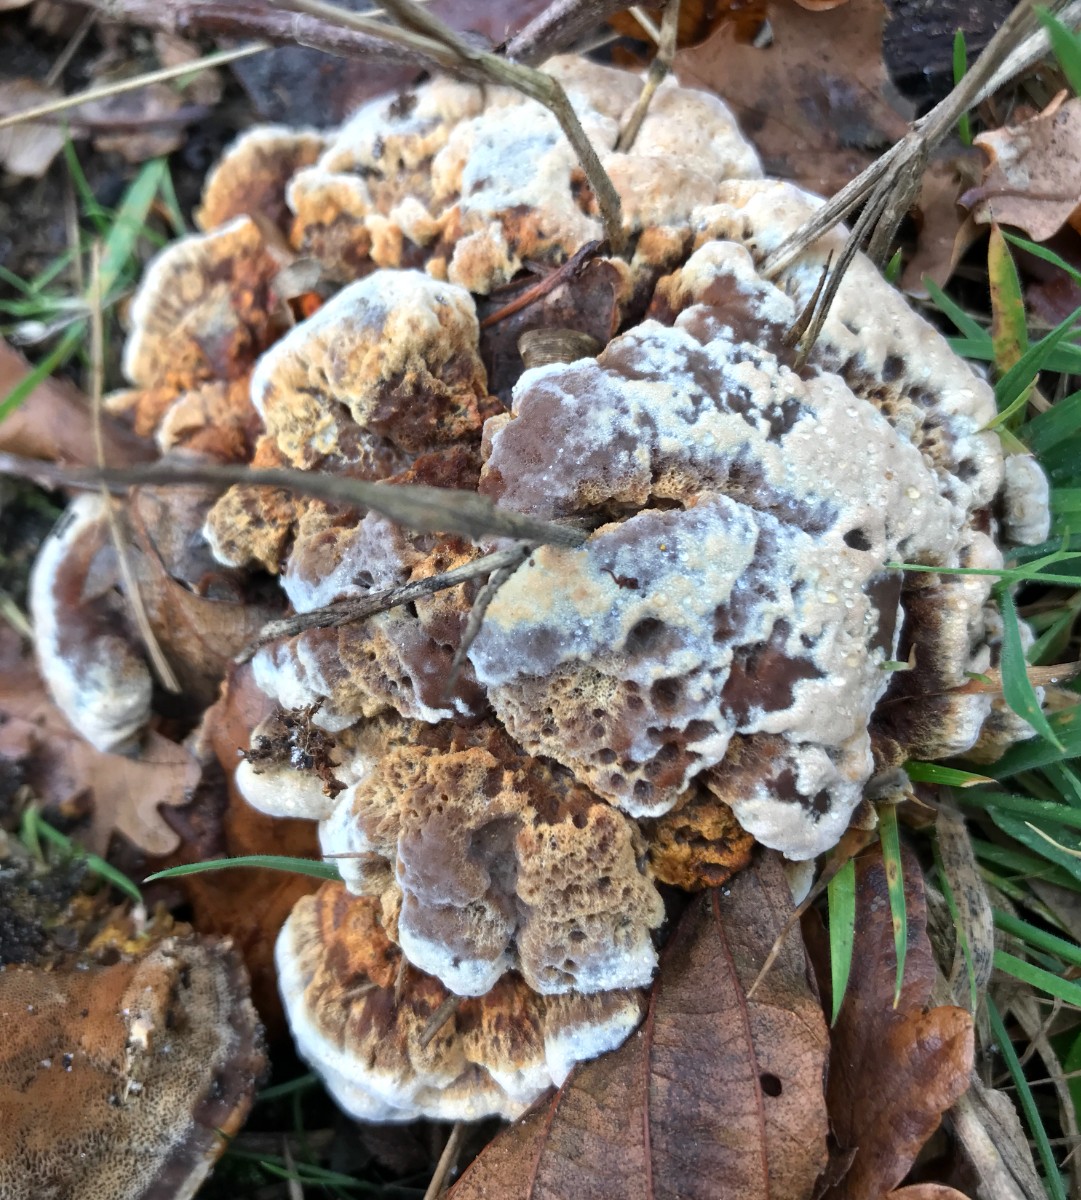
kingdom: Fungi
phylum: Basidiomycota
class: Agaricomycetes
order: Polyporales
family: Laetiporaceae
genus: Phaeolus
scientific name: Phaeolus schweinitzii
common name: brunporesvamp
